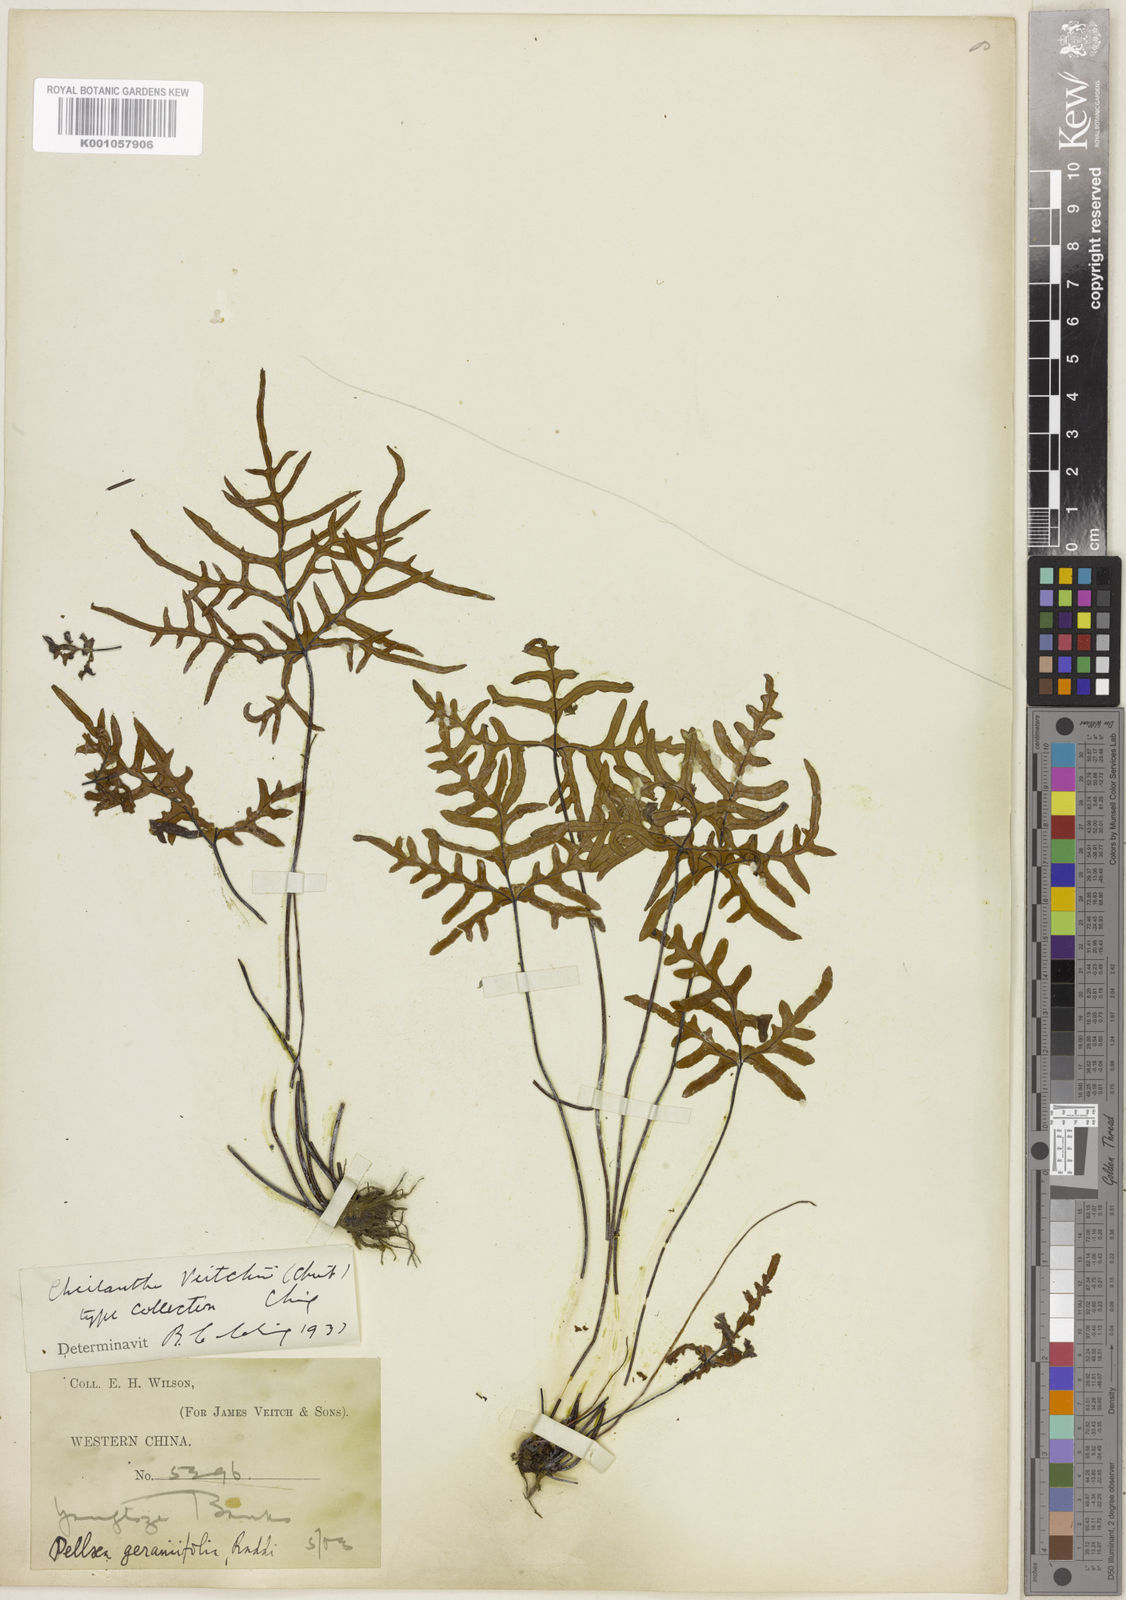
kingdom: Plantae
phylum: Tracheophyta
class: Polypodiopsida
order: Polypodiales
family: Pteridaceae
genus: Aleuritopteris
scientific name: Aleuritopteris veitchii
